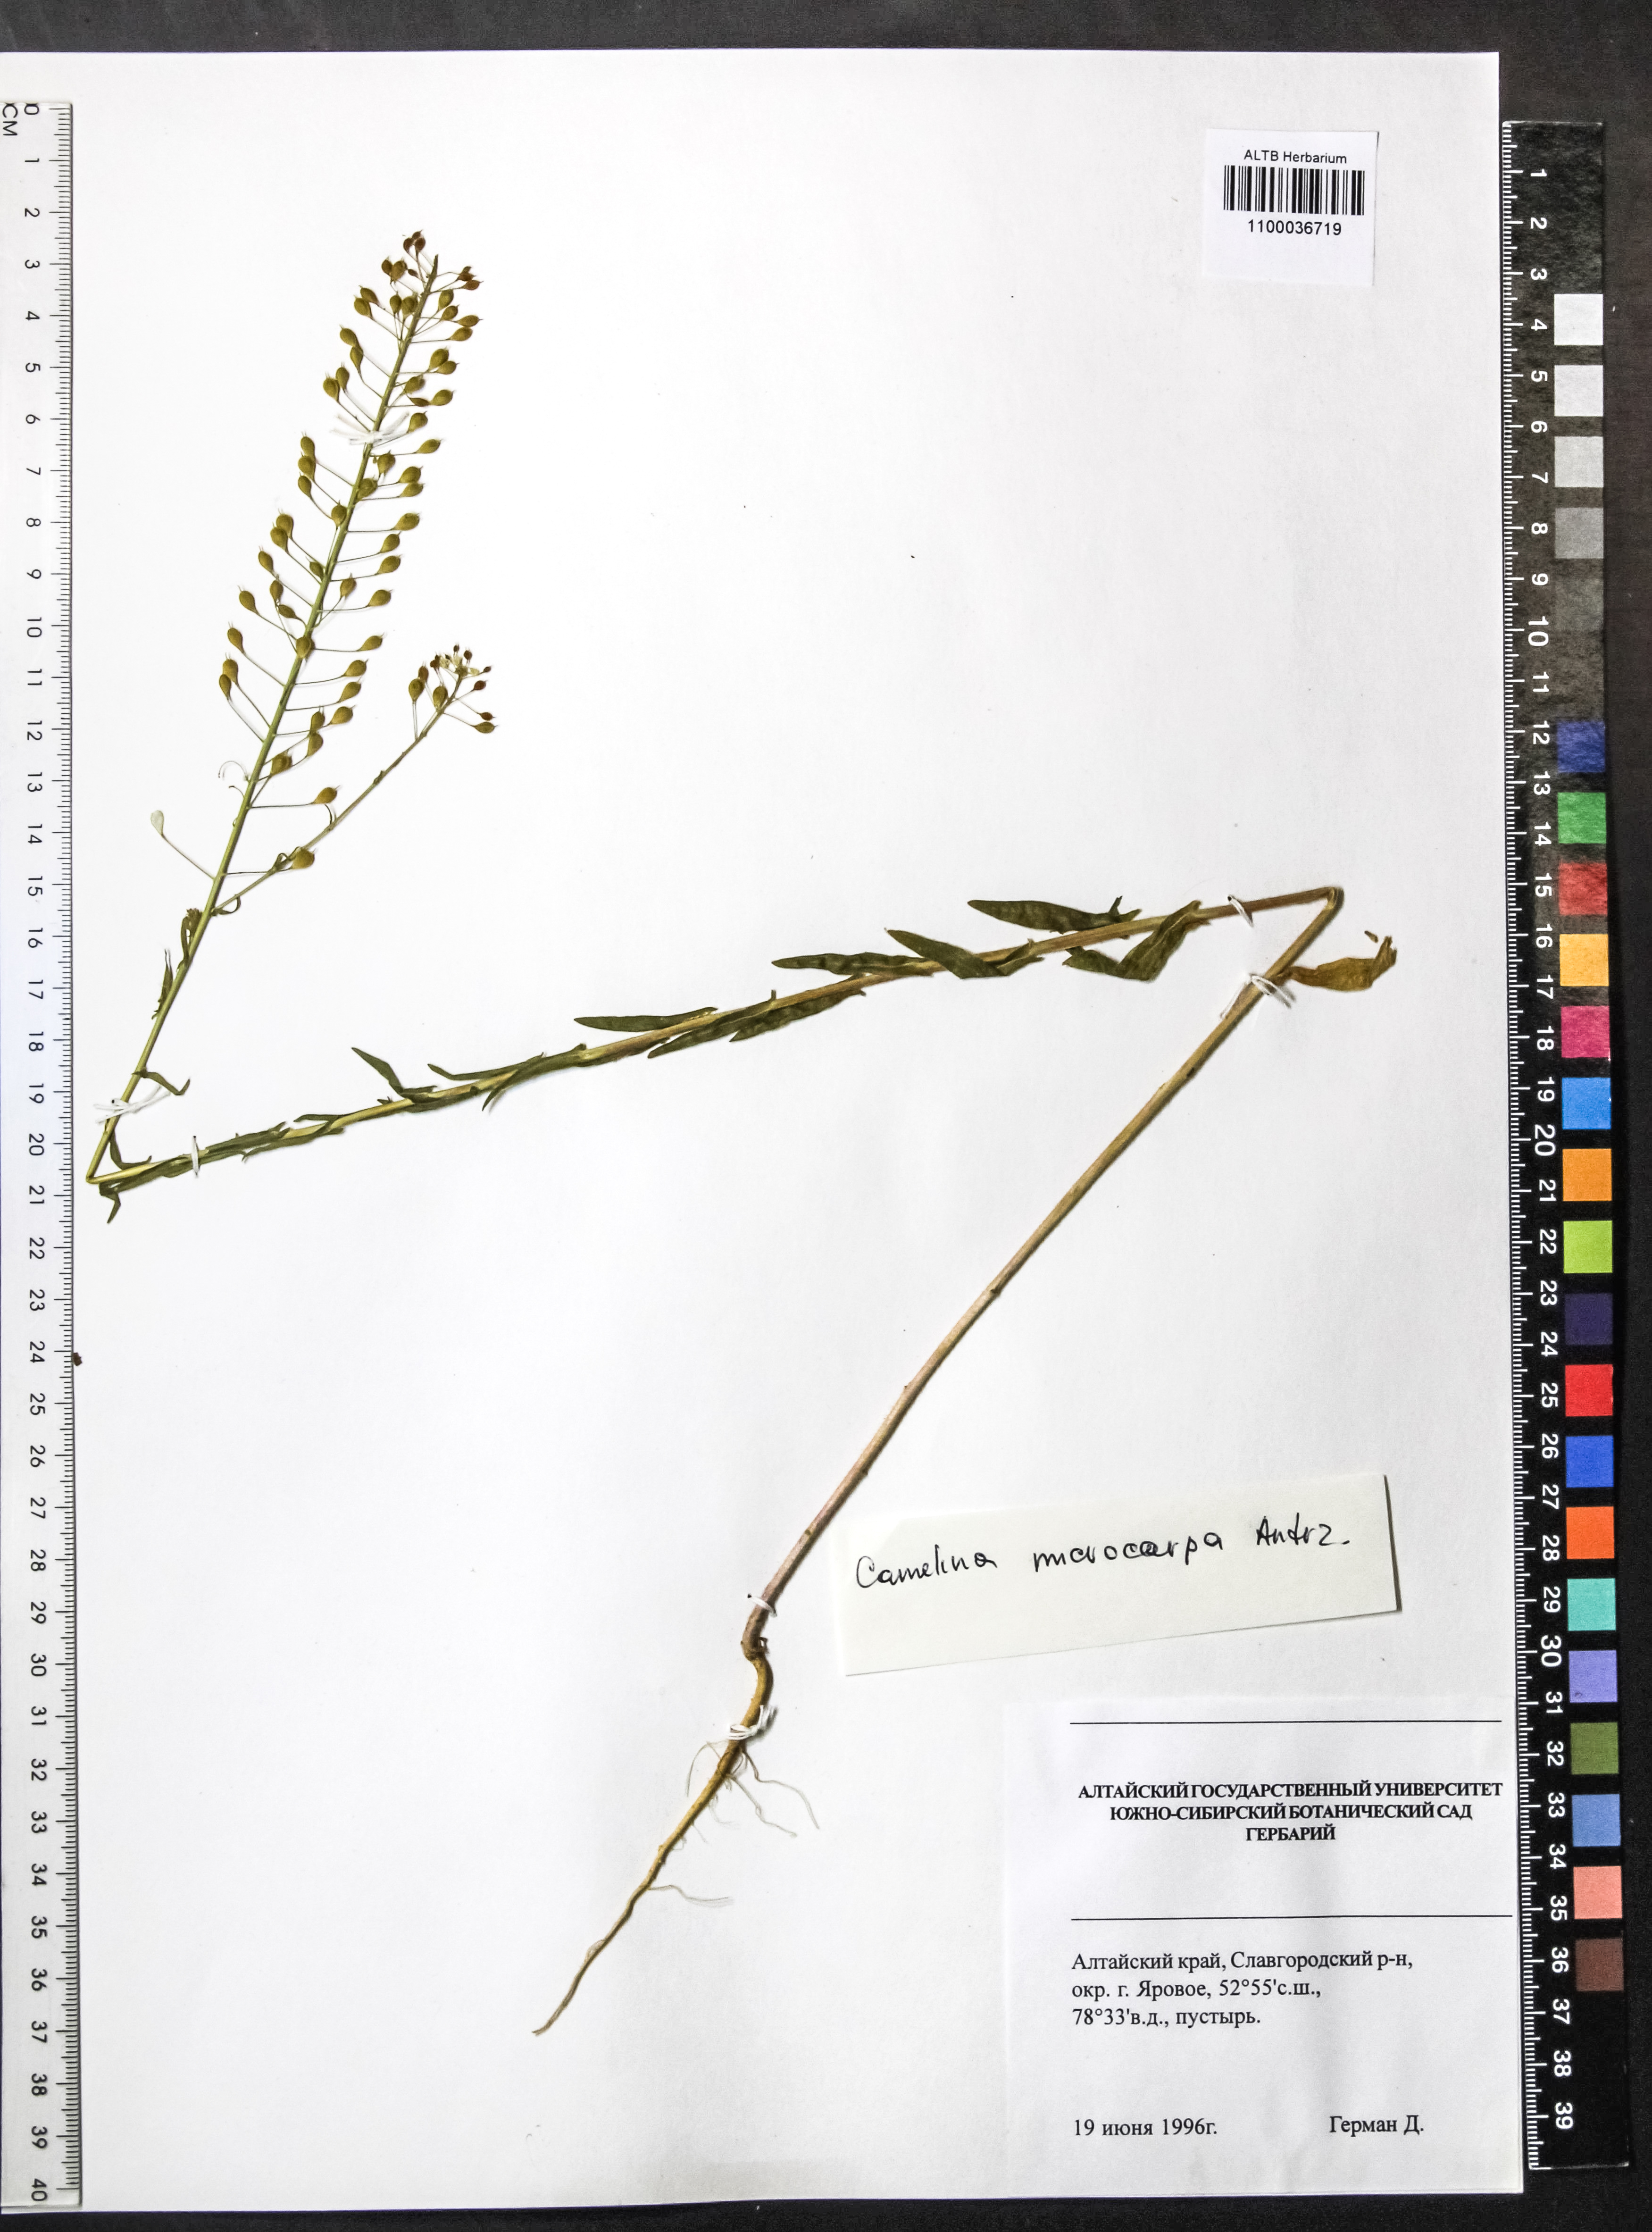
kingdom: Plantae
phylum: Tracheophyta
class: Magnoliopsida
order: Brassicales
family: Brassicaceae
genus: Camelina
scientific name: Camelina microcarpa
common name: Lesser gold-of-pleasure
